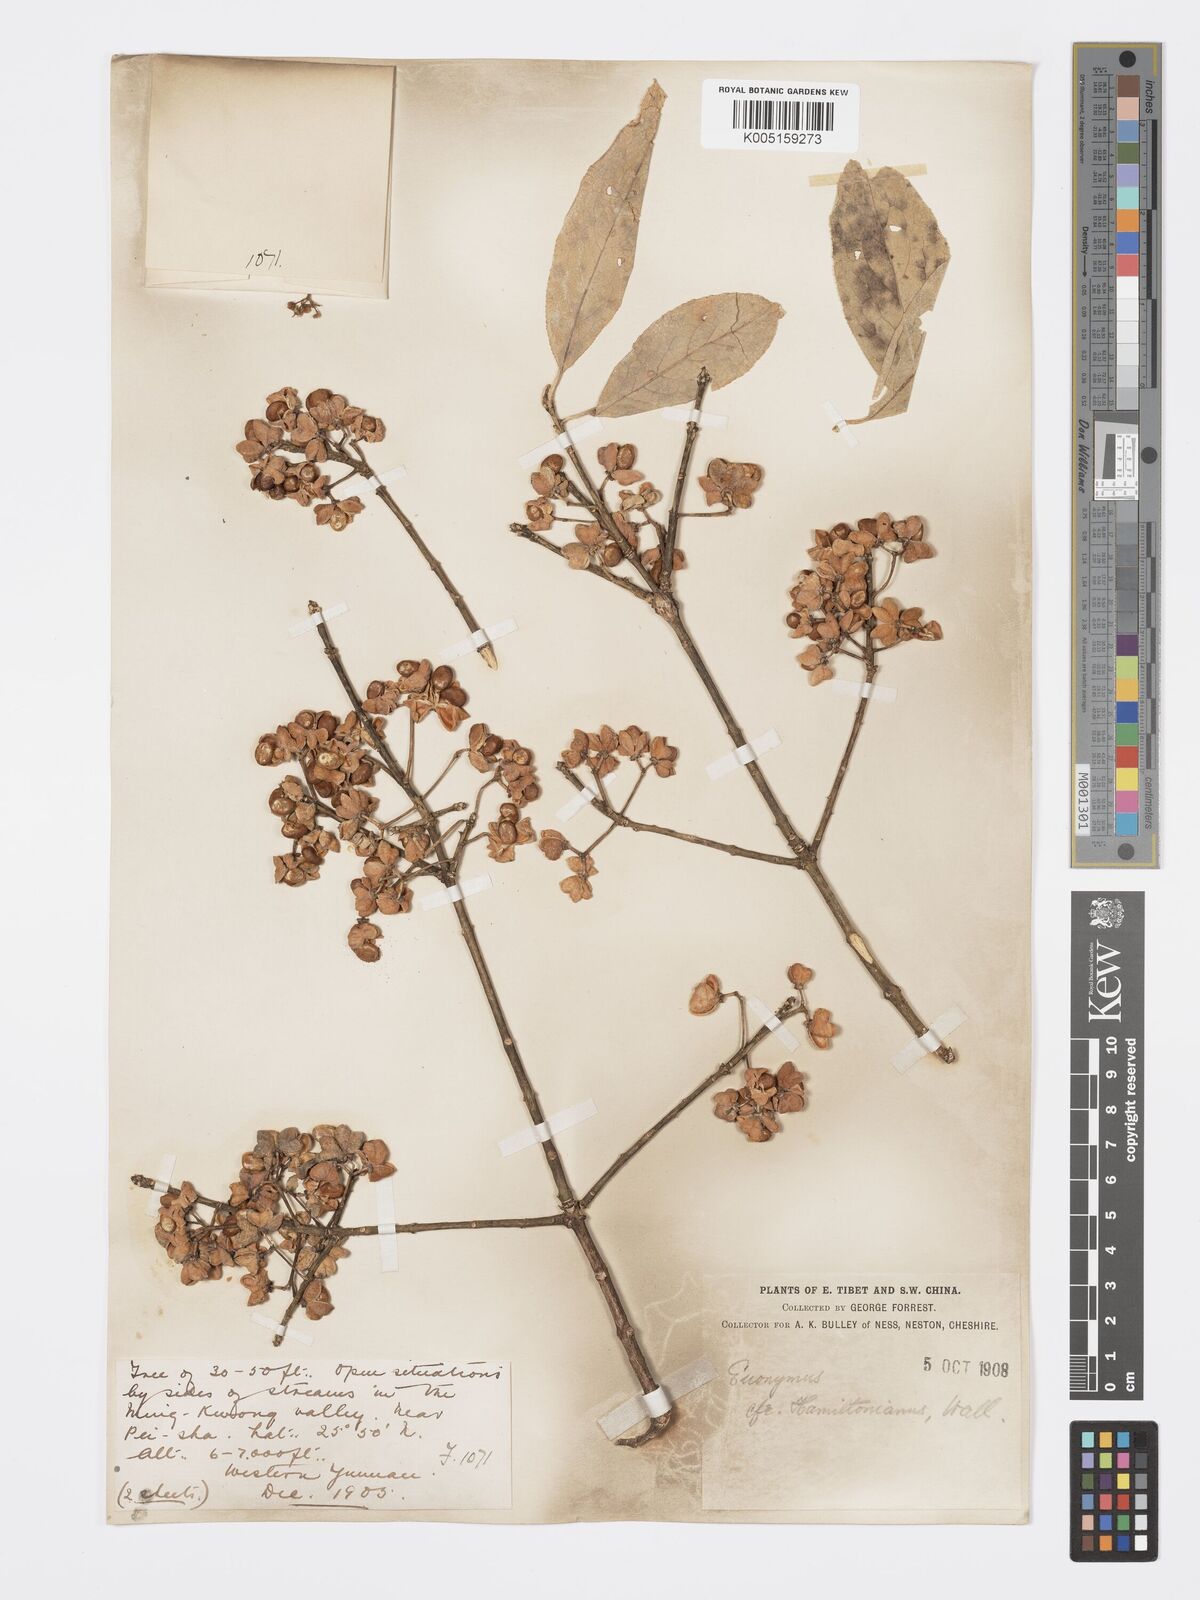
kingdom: Plantae
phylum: Tracheophyta
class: Magnoliopsida
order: Celastrales
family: Celastraceae
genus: Euonymus
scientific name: Euonymus hamiltonianus
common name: Hamilton's spindletree
